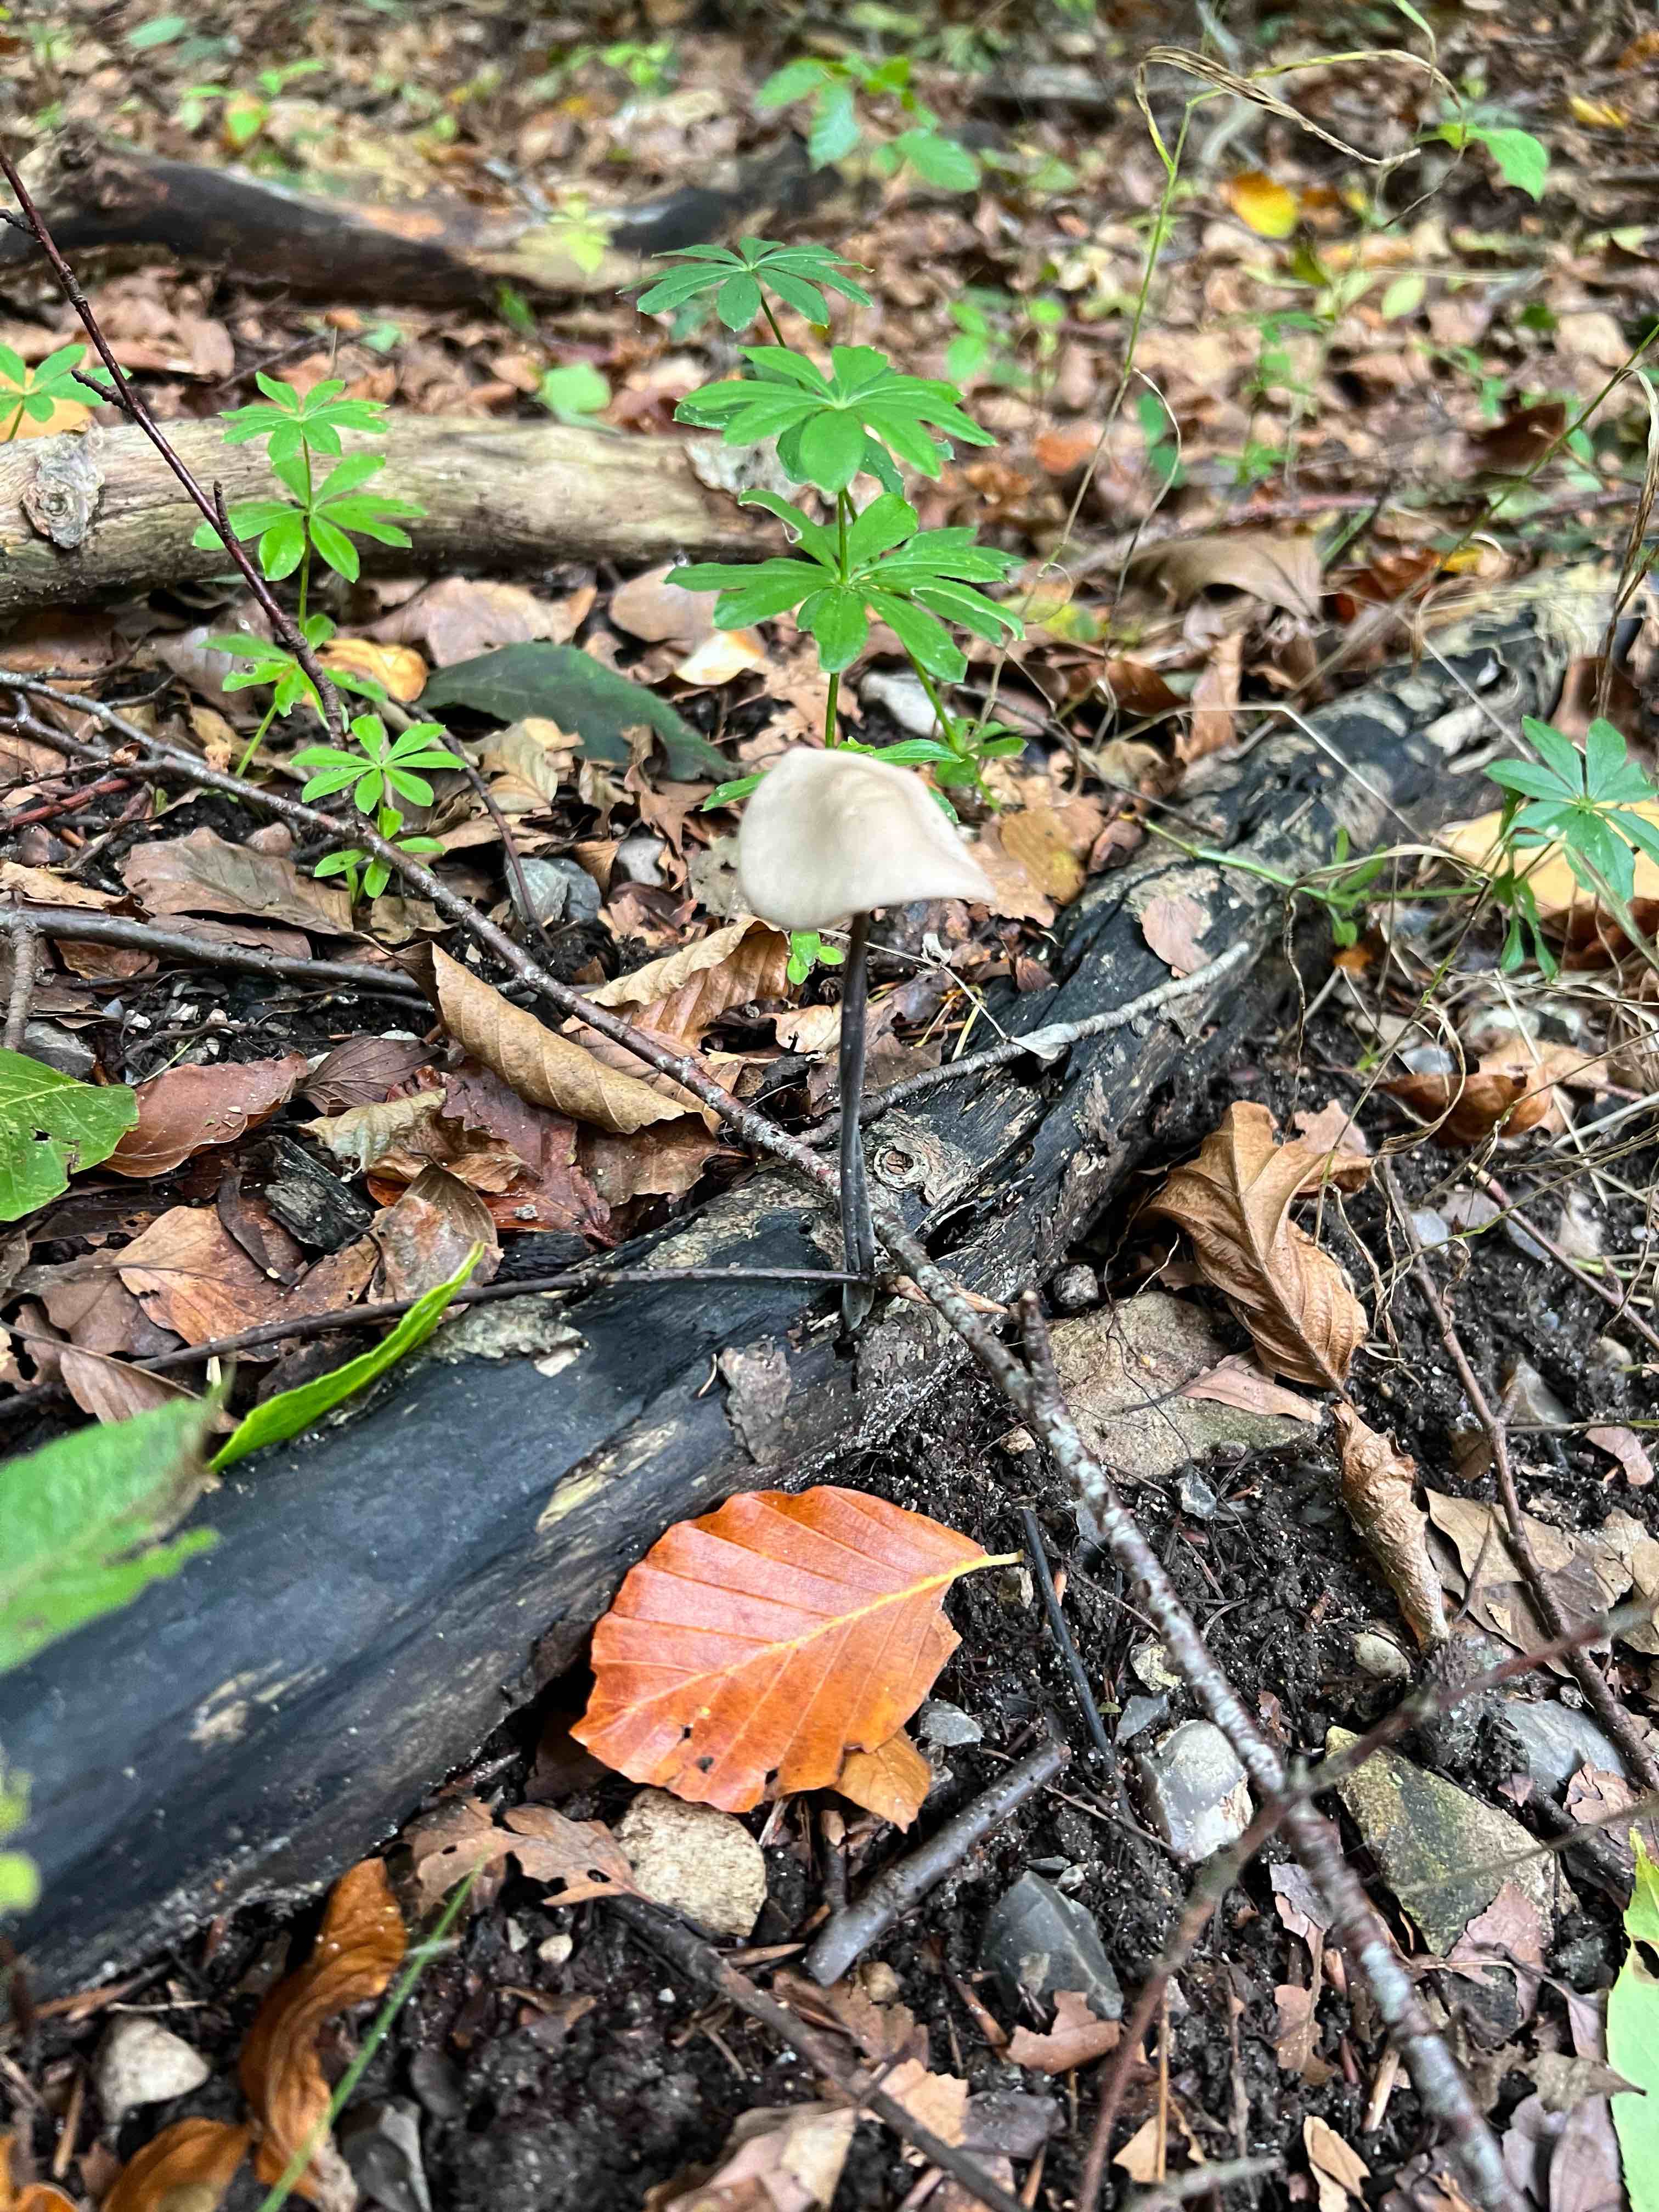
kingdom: Fungi
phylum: Basidiomycota
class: Agaricomycetes
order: Agaricales
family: Omphalotaceae
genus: Mycetinis
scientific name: Mycetinis alliaceus
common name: stor løghat
